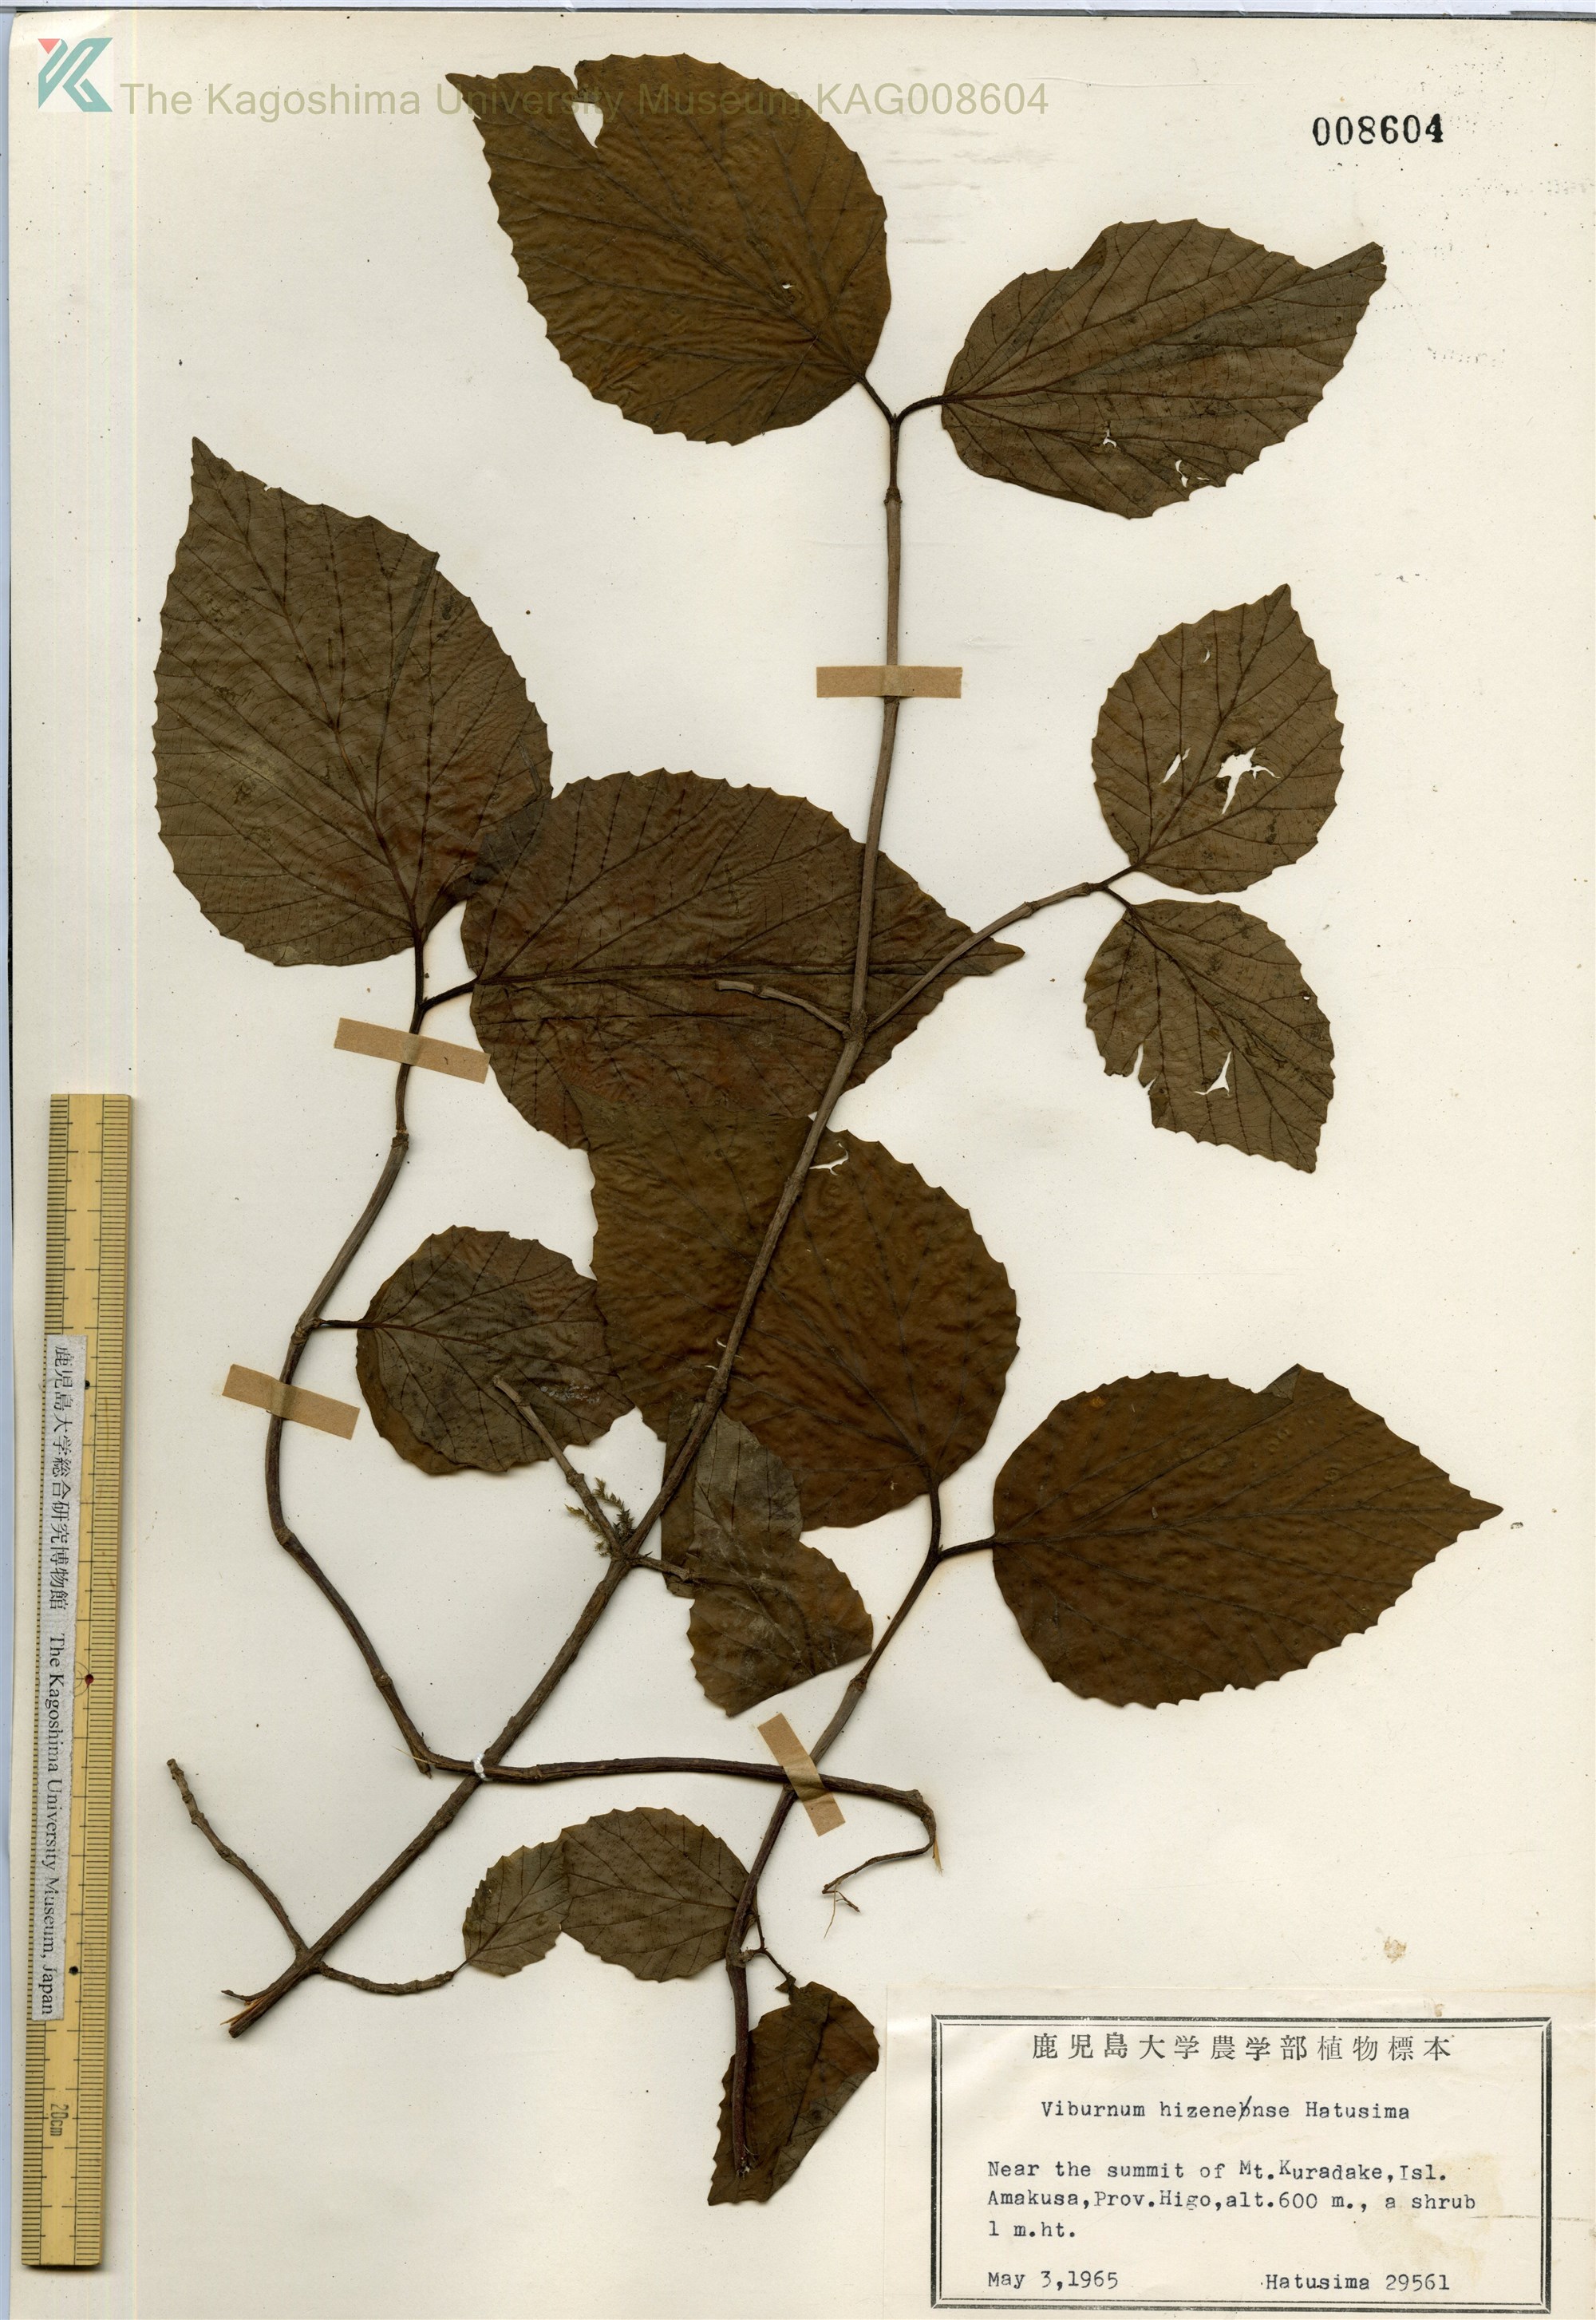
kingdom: Plantae
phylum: Tracheophyta
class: Magnoliopsida
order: Dipsacales
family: Viburnaceae
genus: Viburnum
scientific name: Viburnum hizenense
